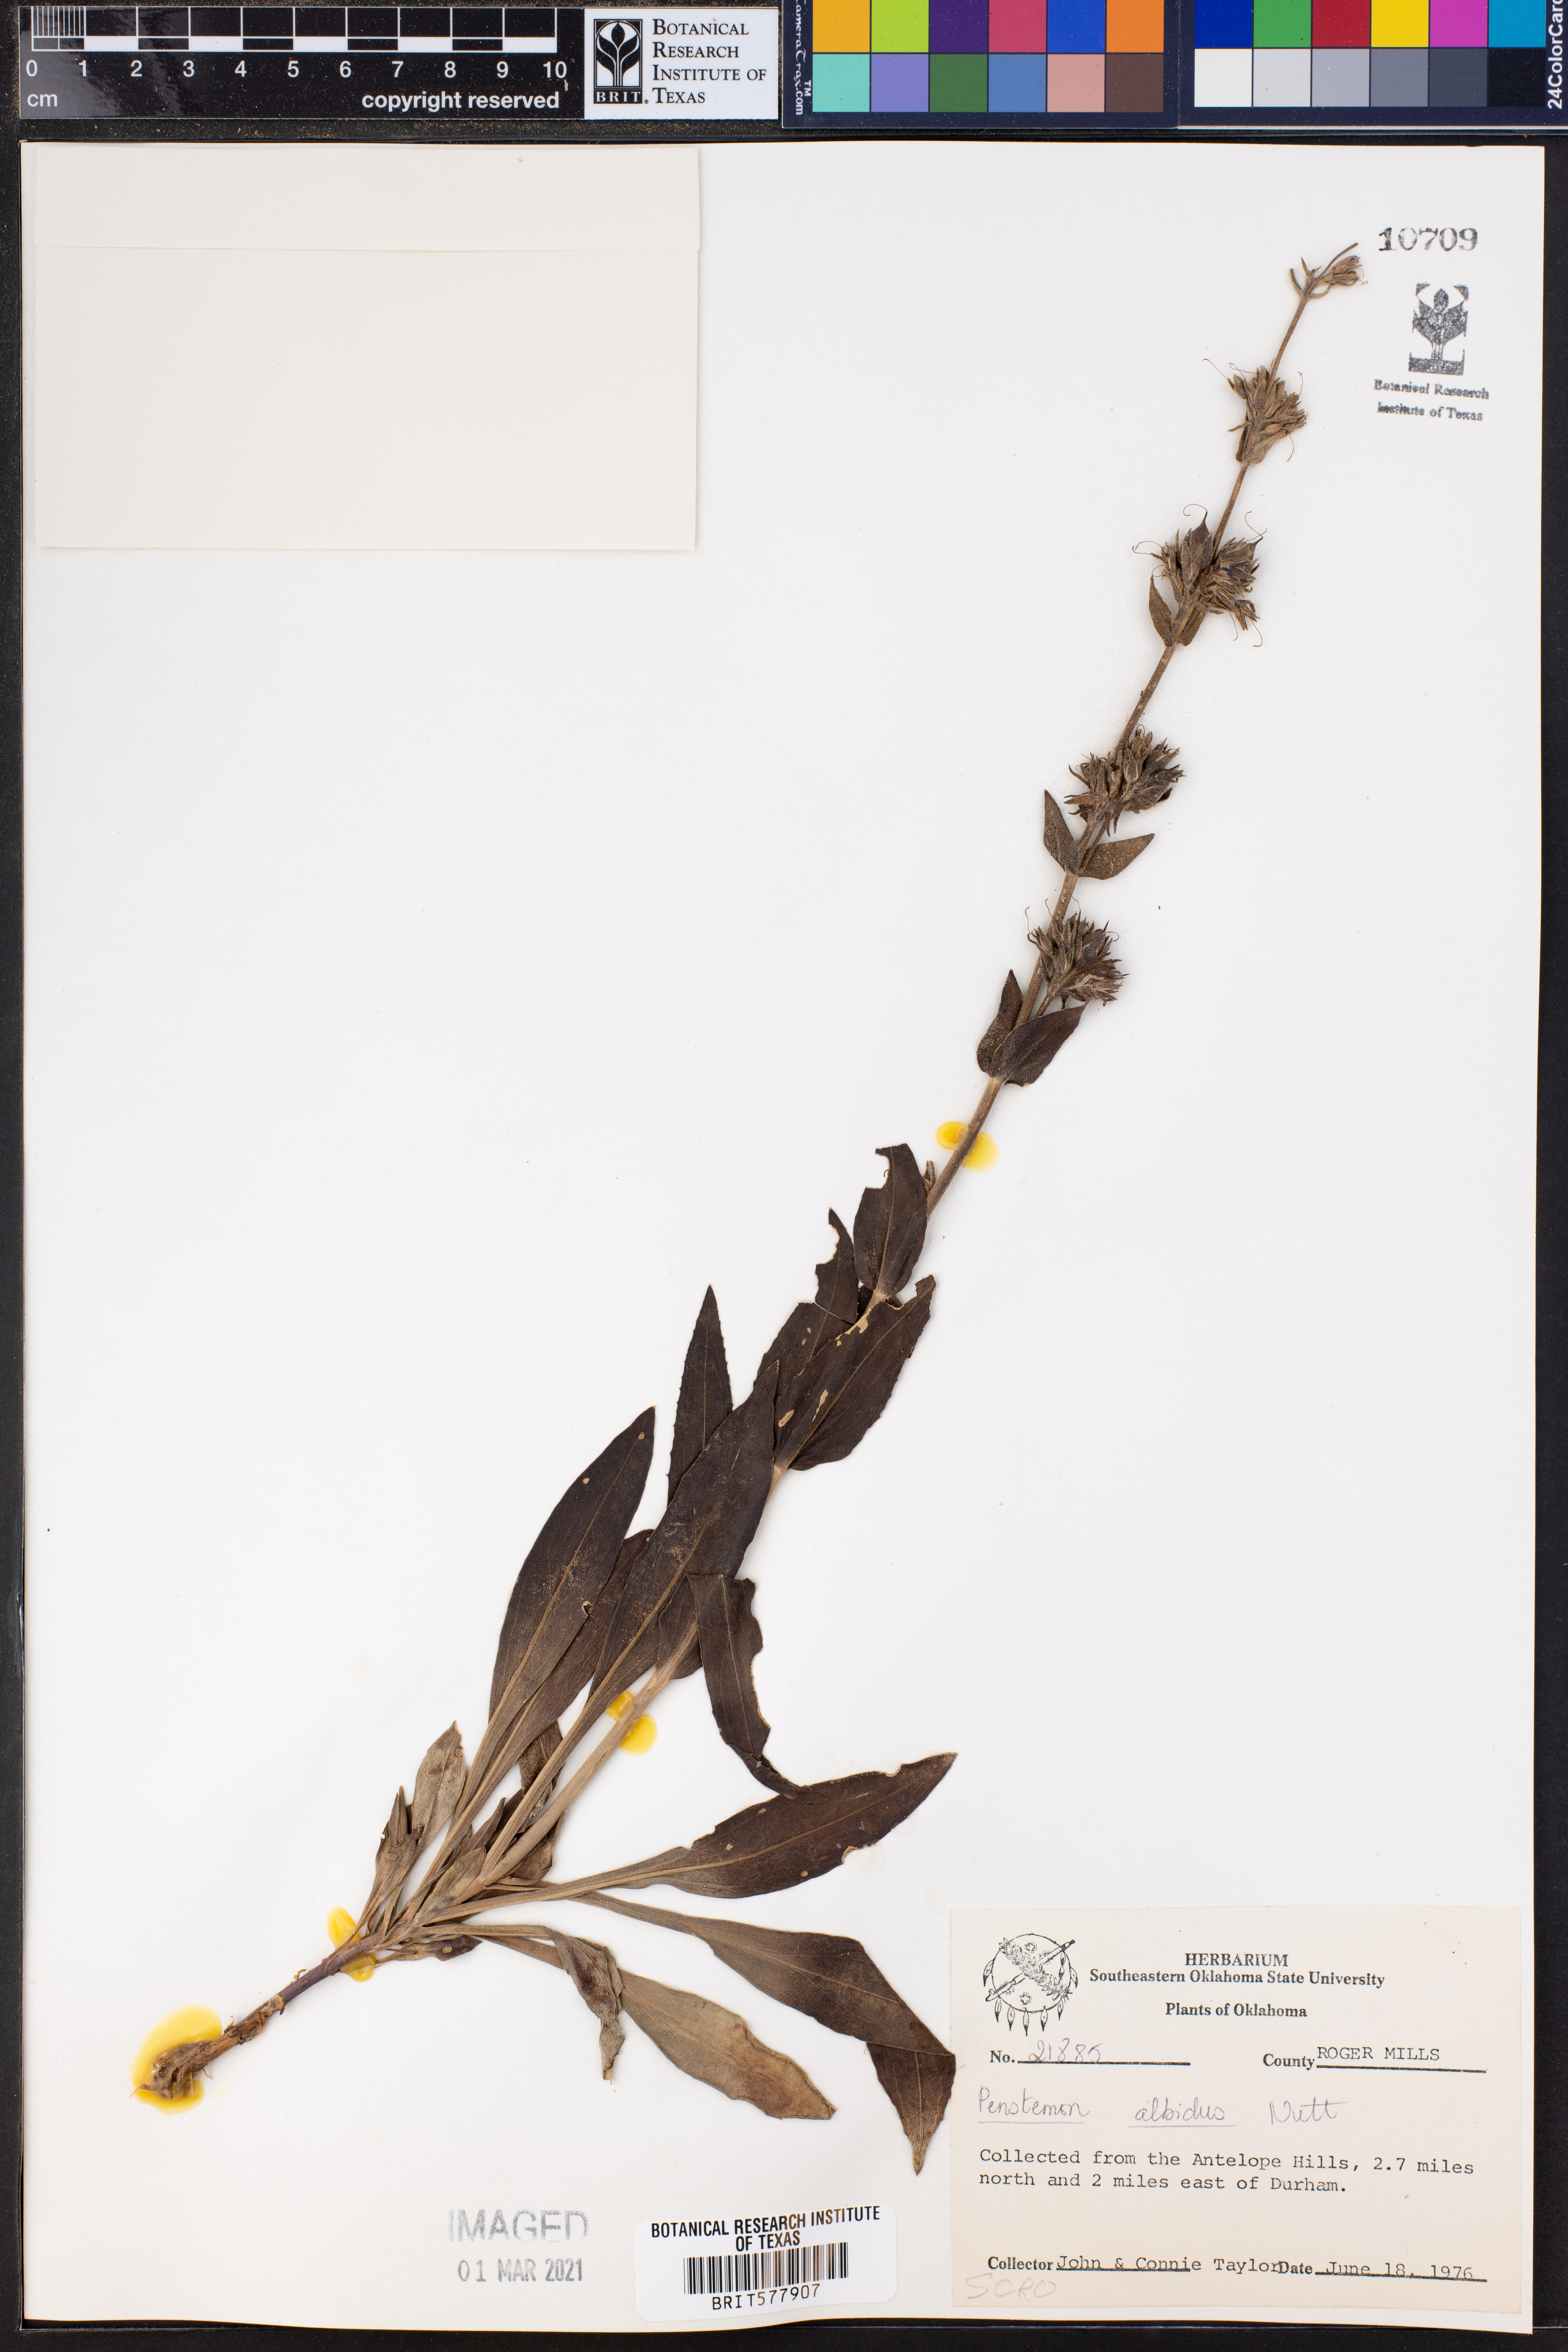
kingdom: Plantae
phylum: Tracheophyta
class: Magnoliopsida
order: Lamiales
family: Plantaginaceae
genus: Penstemon
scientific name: Penstemon albidus
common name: White beardtongue
